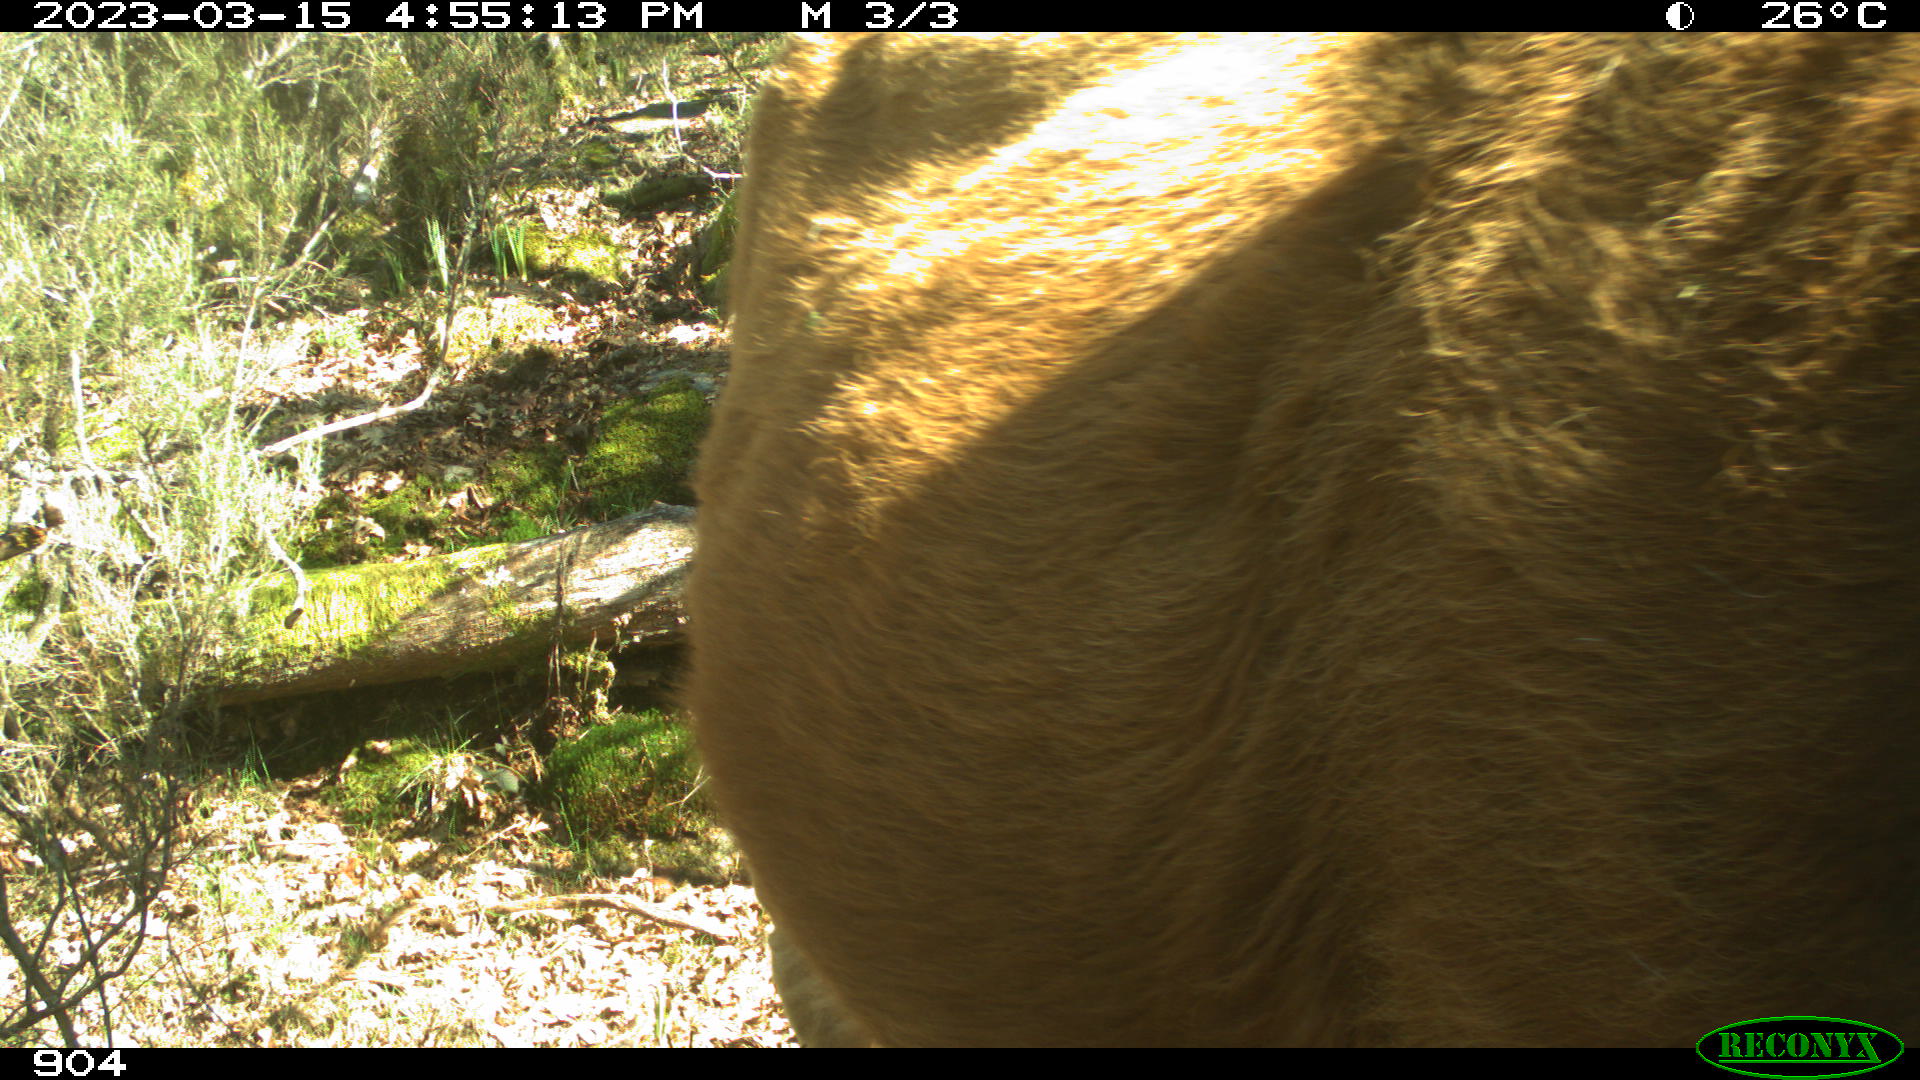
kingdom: Animalia
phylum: Chordata
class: Mammalia
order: Artiodactyla
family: Bovidae
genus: Bos
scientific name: Bos taurus
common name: Domesticated cattle
